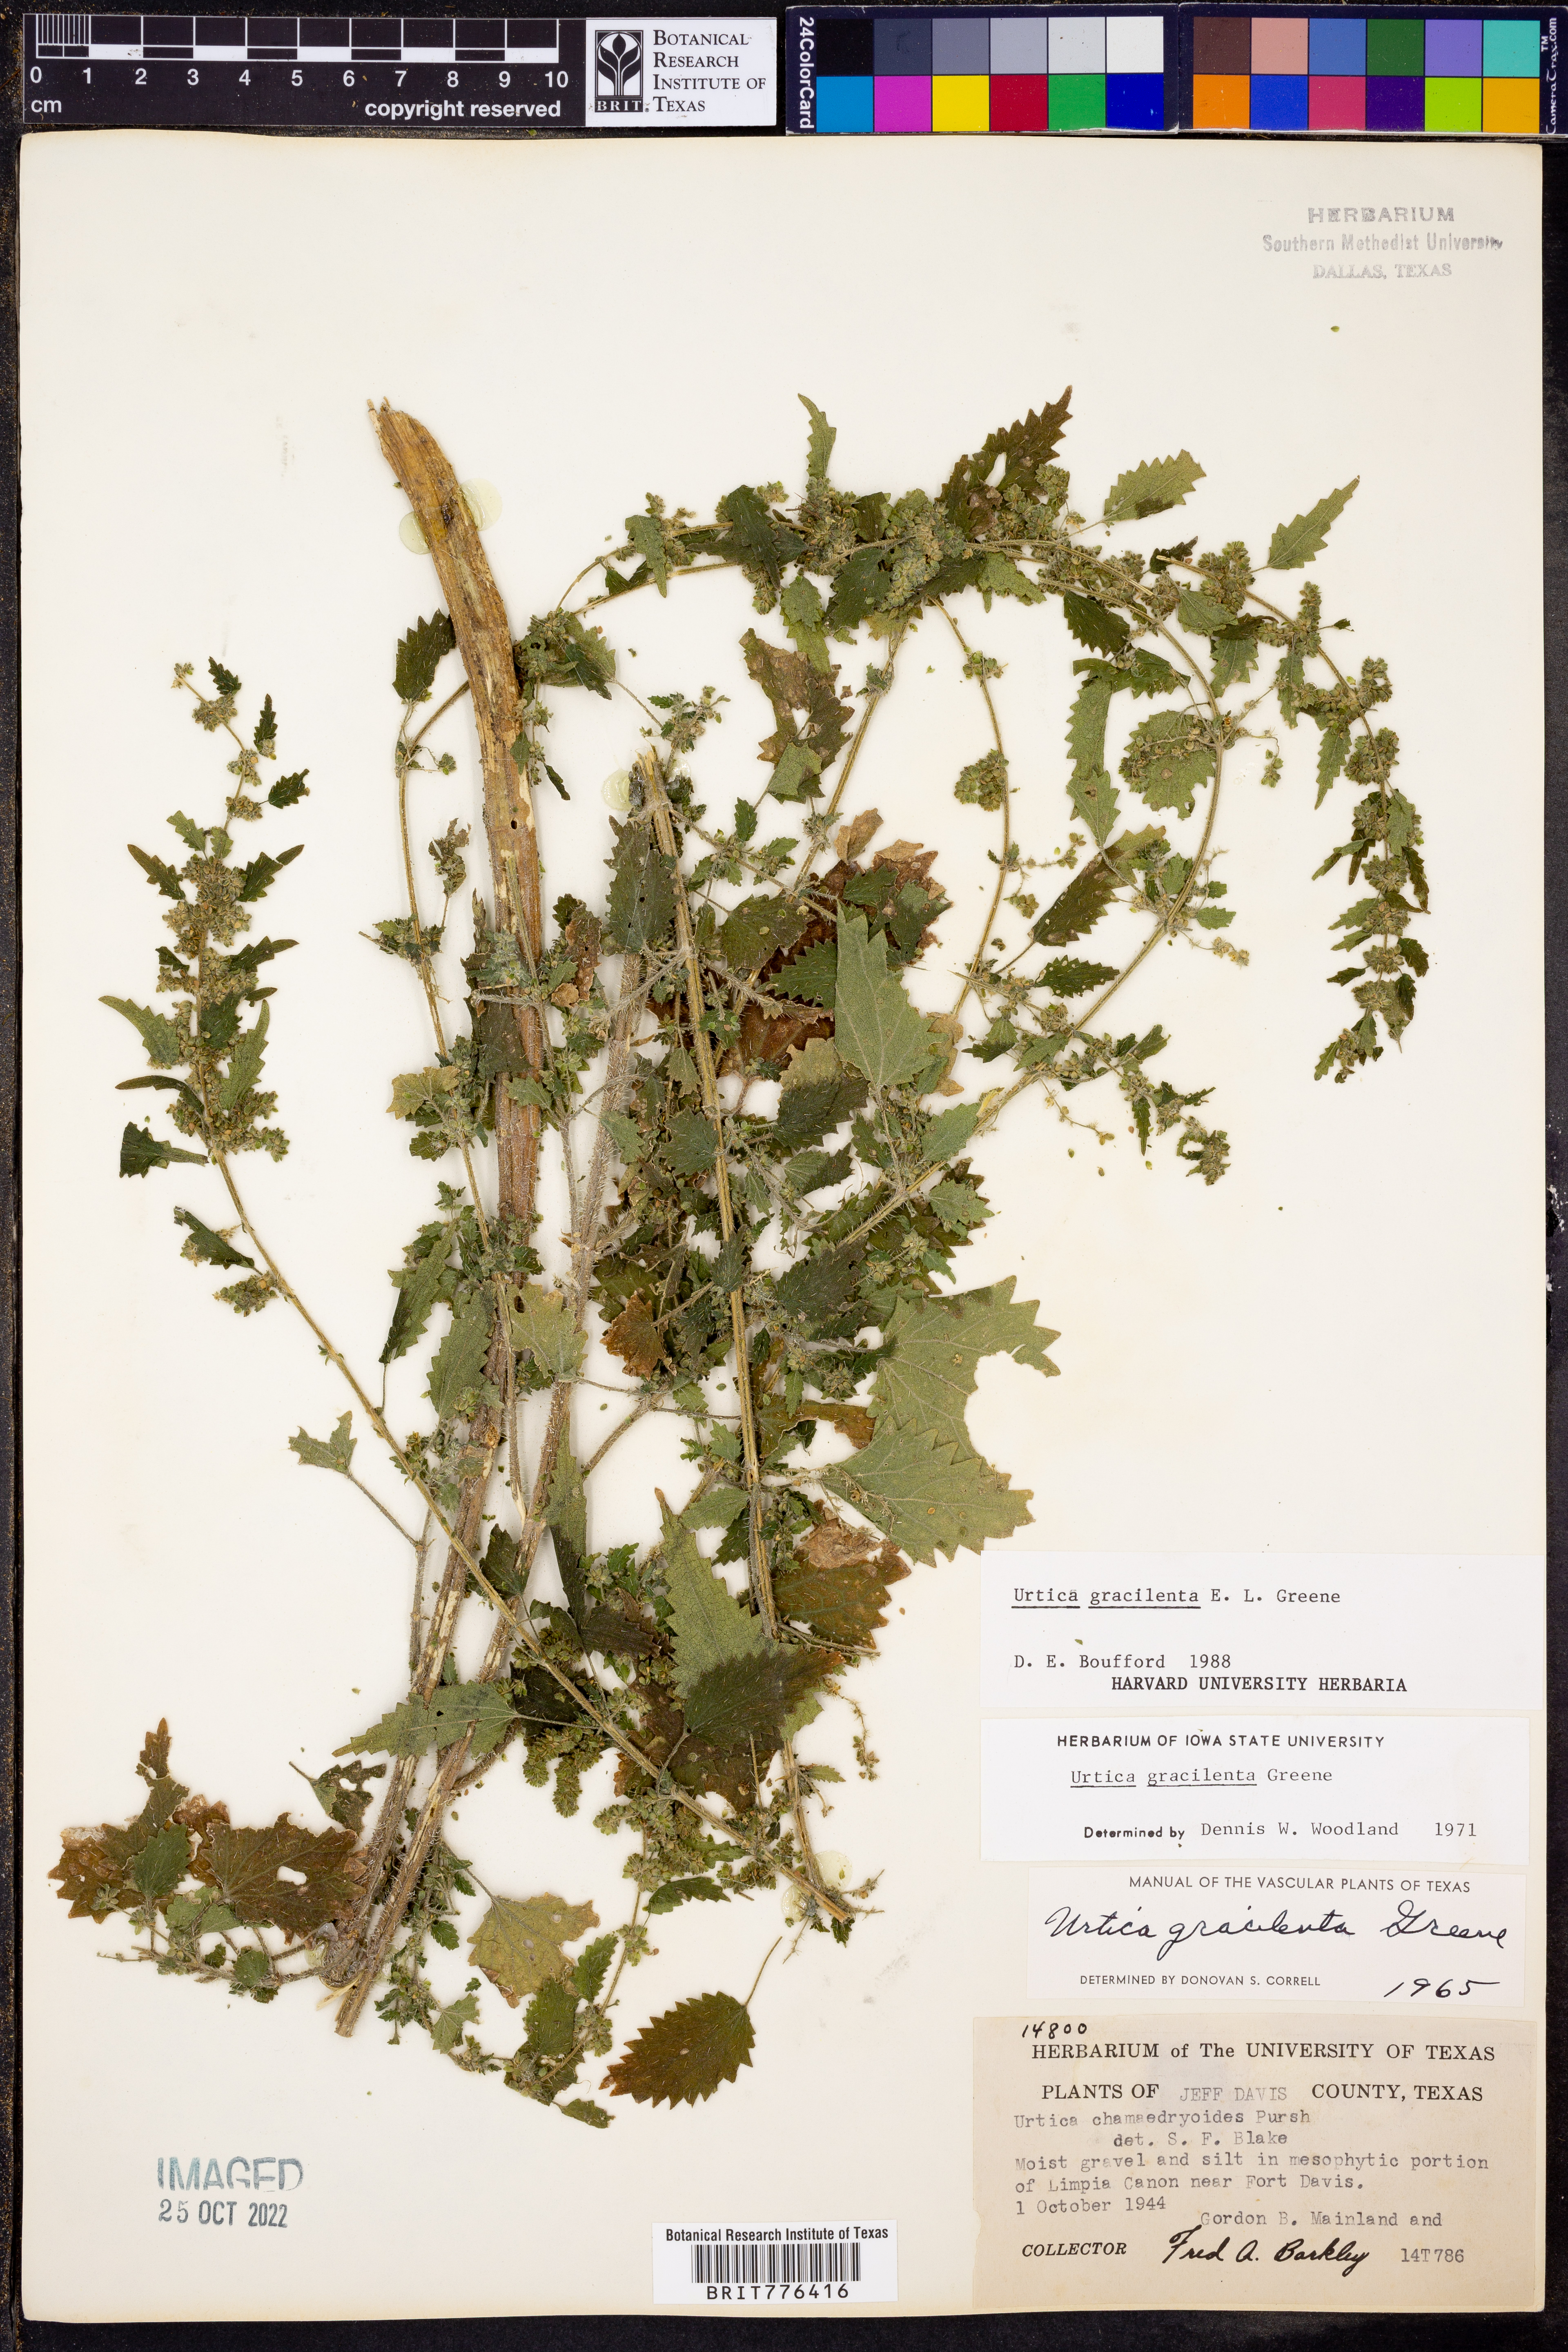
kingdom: Plantae
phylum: Tracheophyta
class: Magnoliopsida
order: Rosales
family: Urticaceae
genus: Urtica
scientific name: Urtica gracilenta
